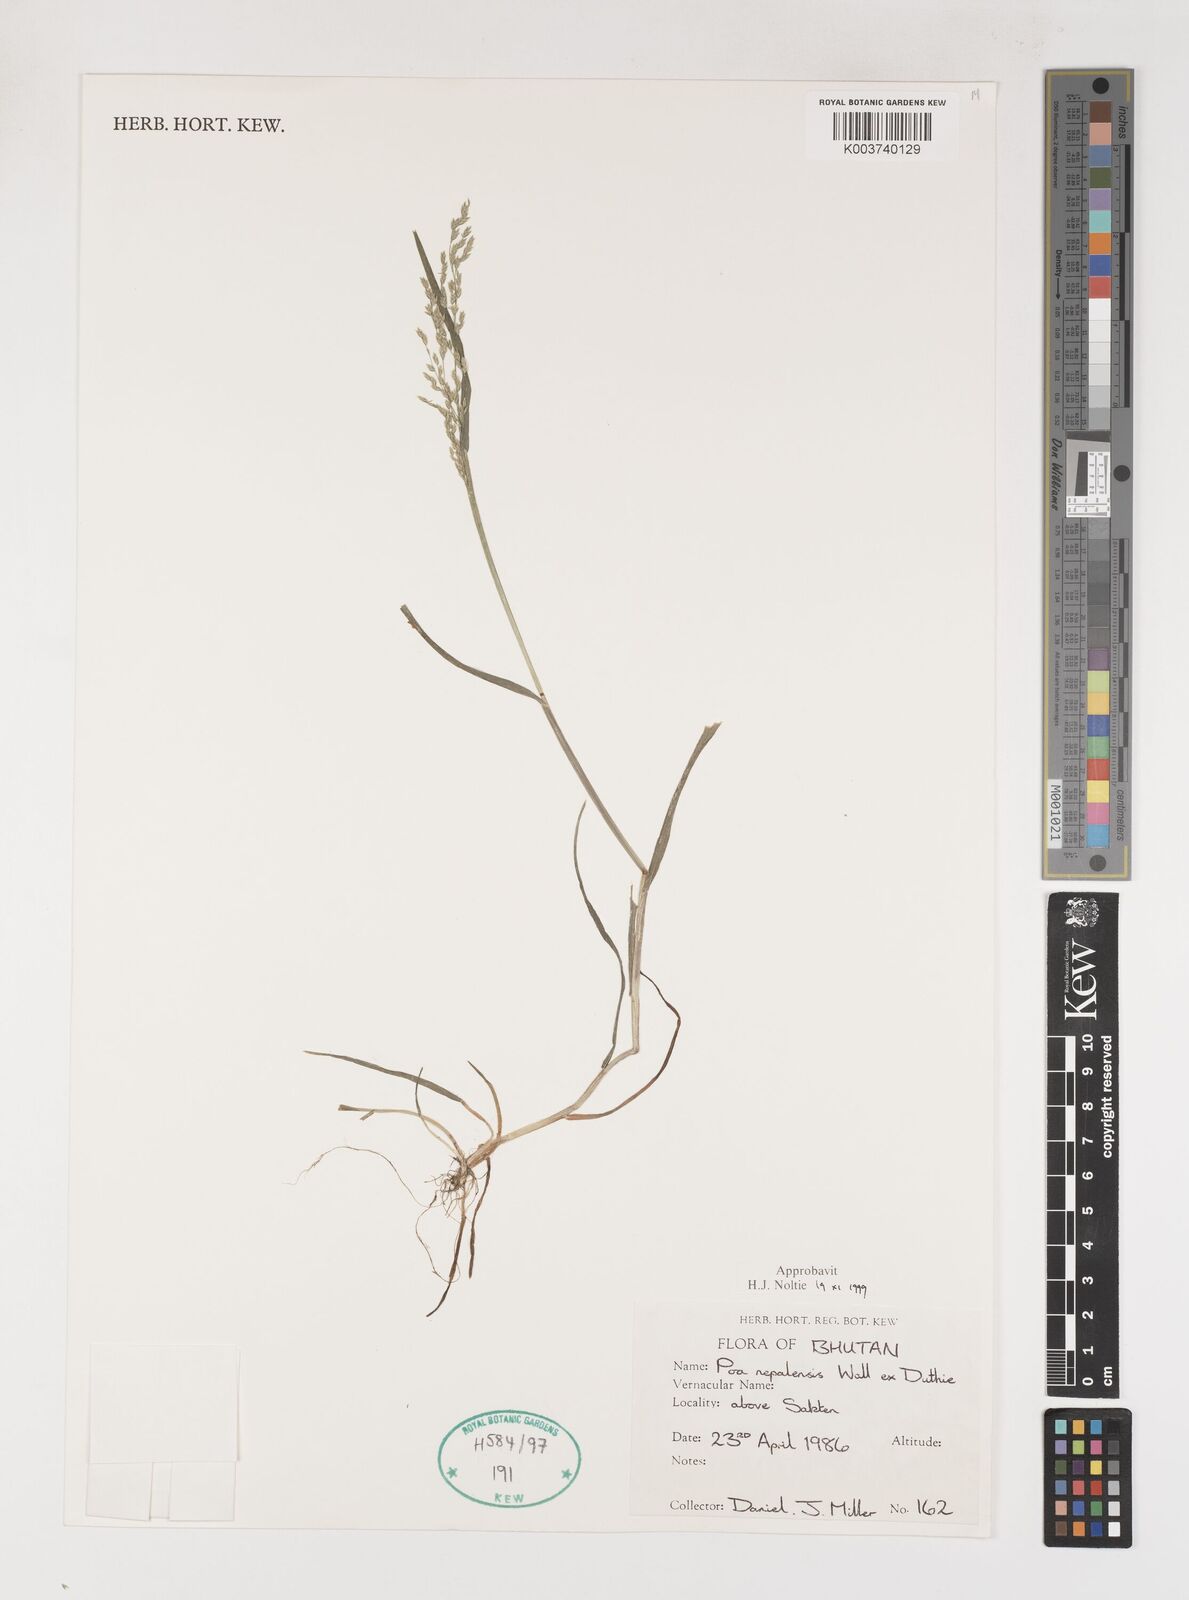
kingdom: Plantae
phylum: Tracheophyta
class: Liliopsida
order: Poales
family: Poaceae
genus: Poa
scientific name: Poa nepalensis
